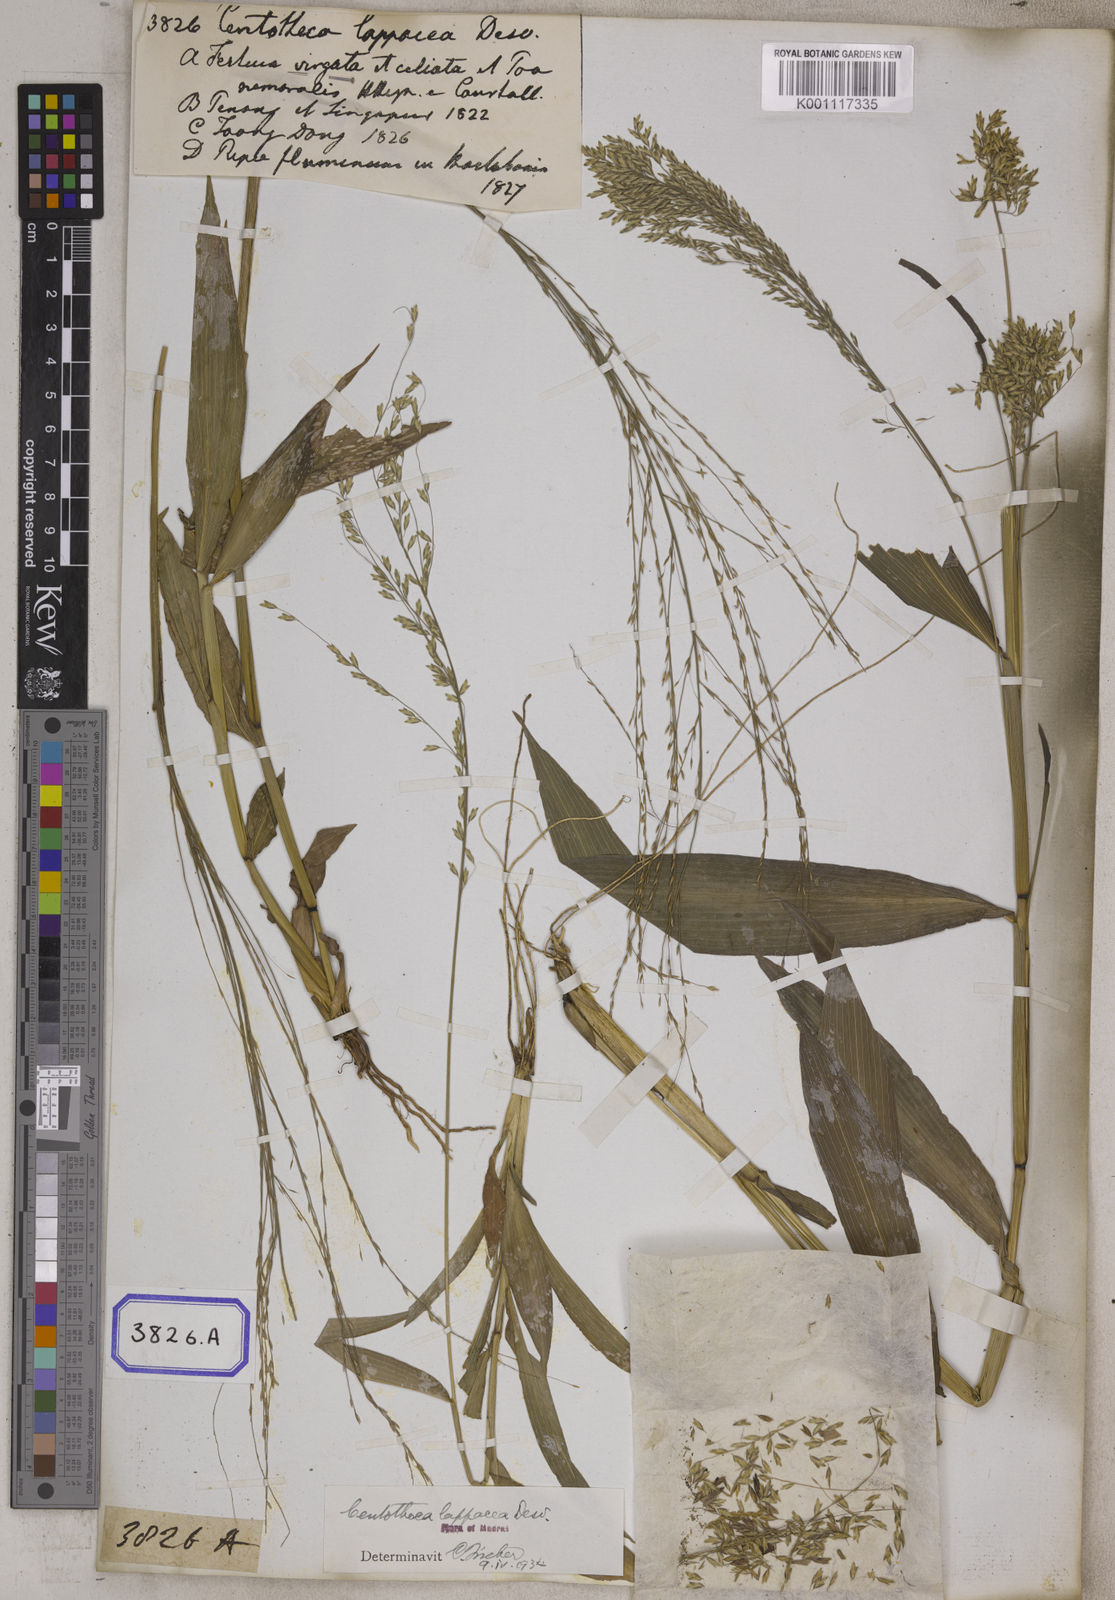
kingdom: Plantae
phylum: Tracheophyta
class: Liliopsida
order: Poales
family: Poaceae
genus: Centotheca
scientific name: Centotheca lappacea
